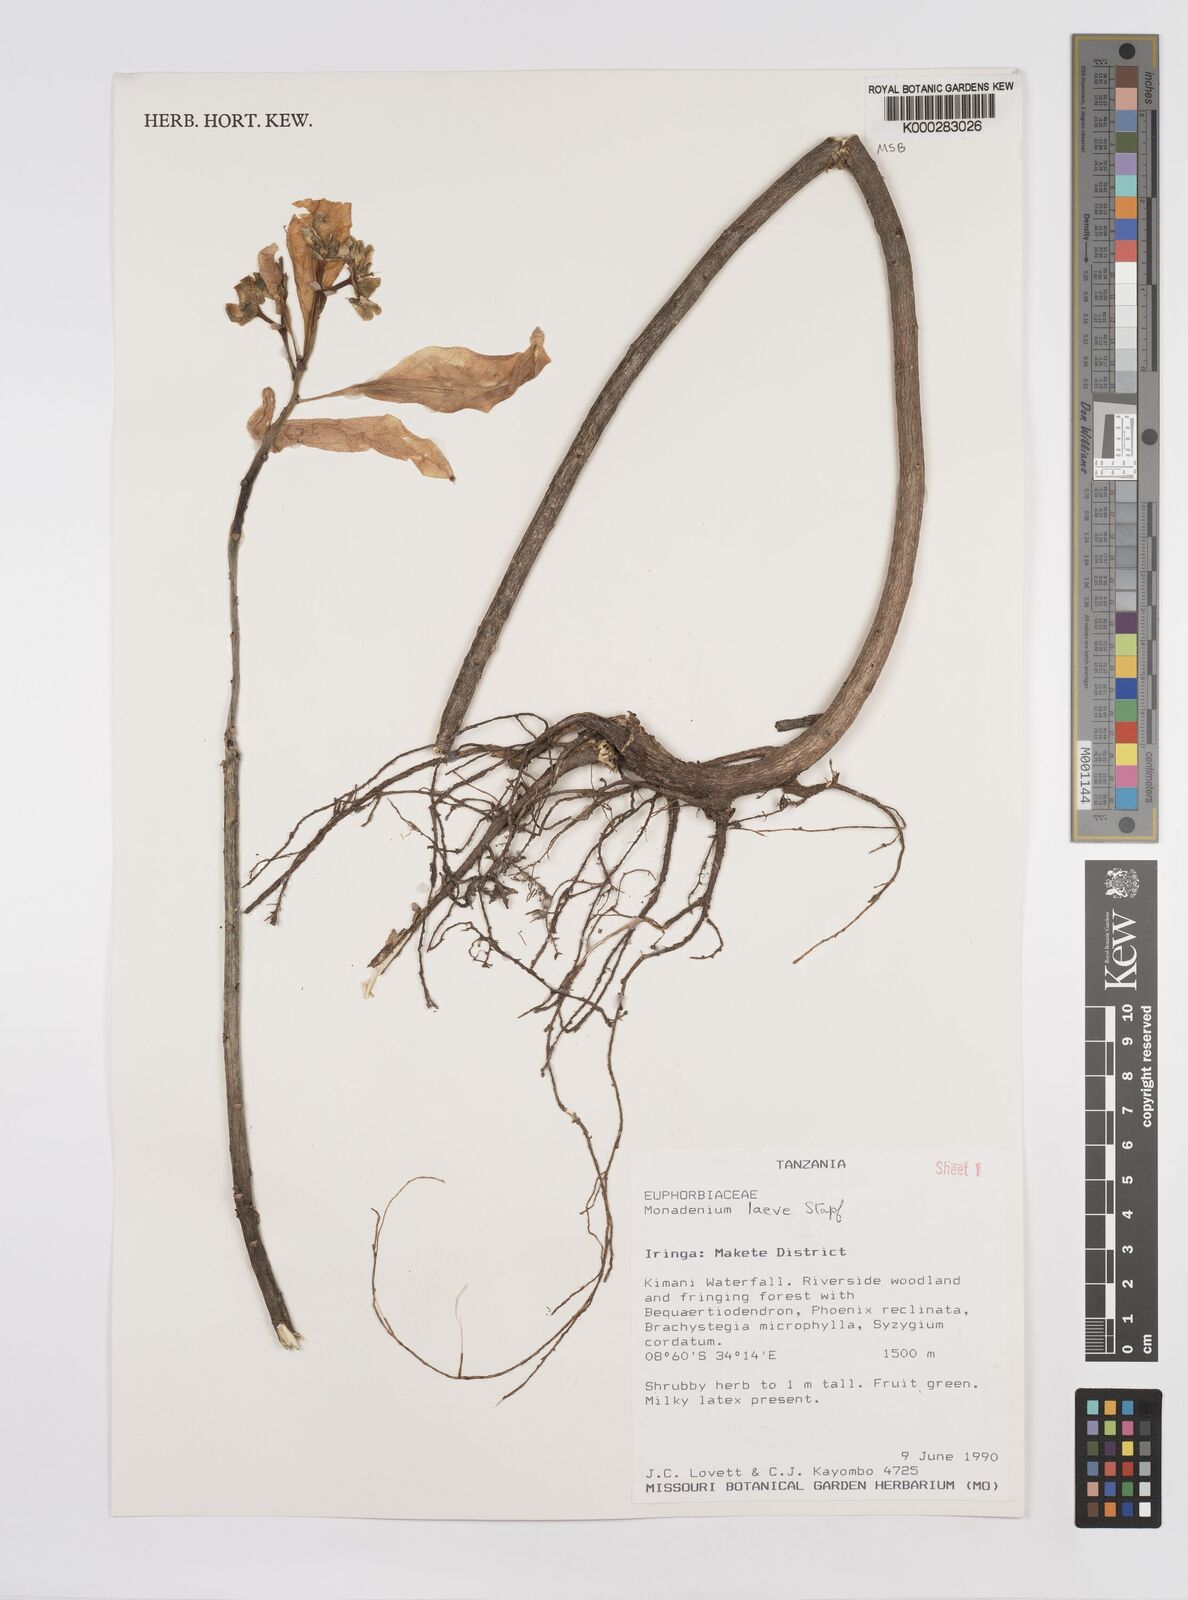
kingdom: Plantae
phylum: Tracheophyta
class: Magnoliopsida
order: Malpighiales
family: Euphorbiaceae
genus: Euphorbia
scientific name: Euphorbia pseudolaevis
